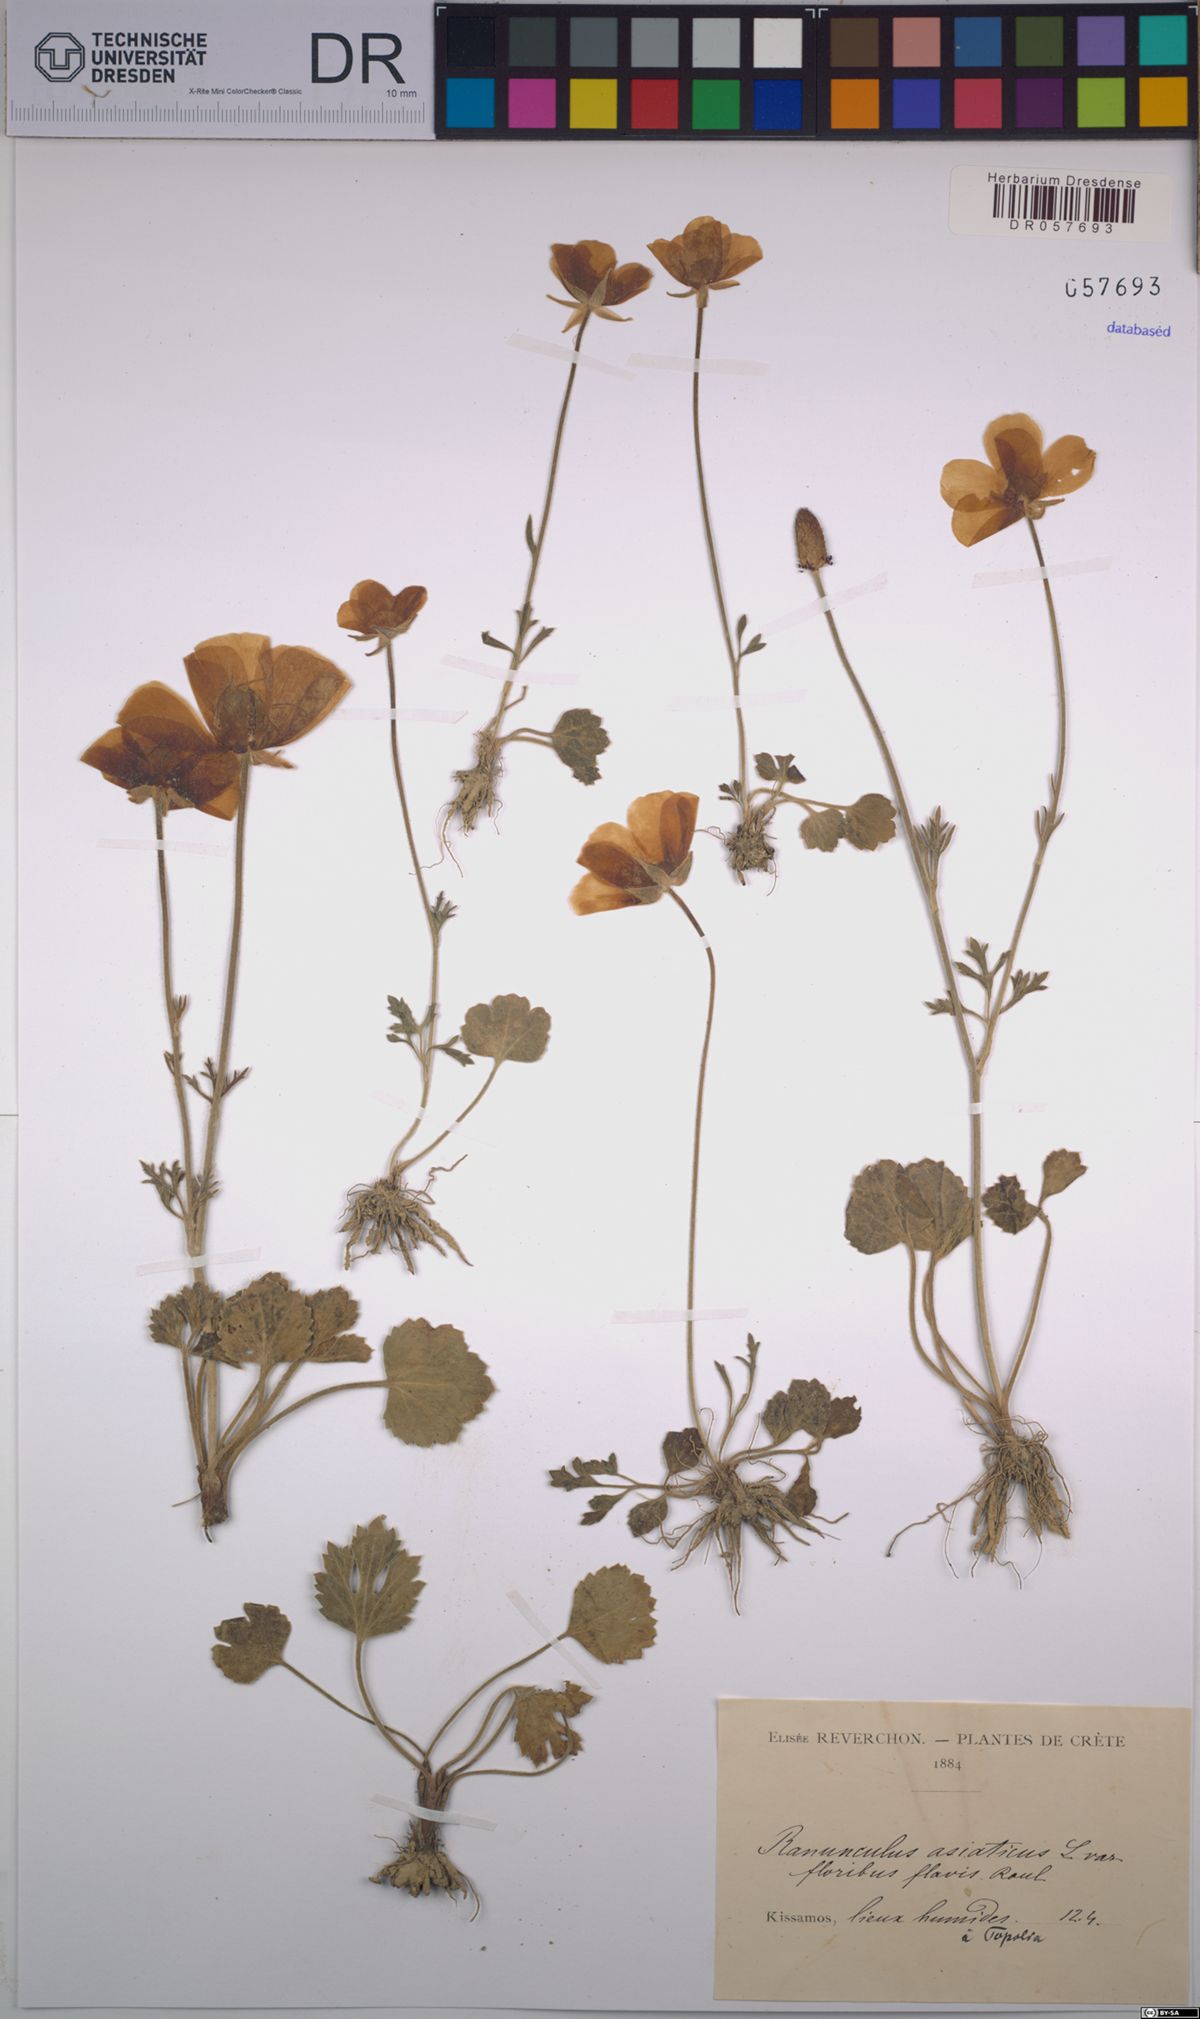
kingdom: Plantae
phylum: Tracheophyta
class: Magnoliopsida
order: Ranunculales
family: Ranunculaceae
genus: Ranunculus
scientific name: Ranunculus asiaticus
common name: Persian buttercup
